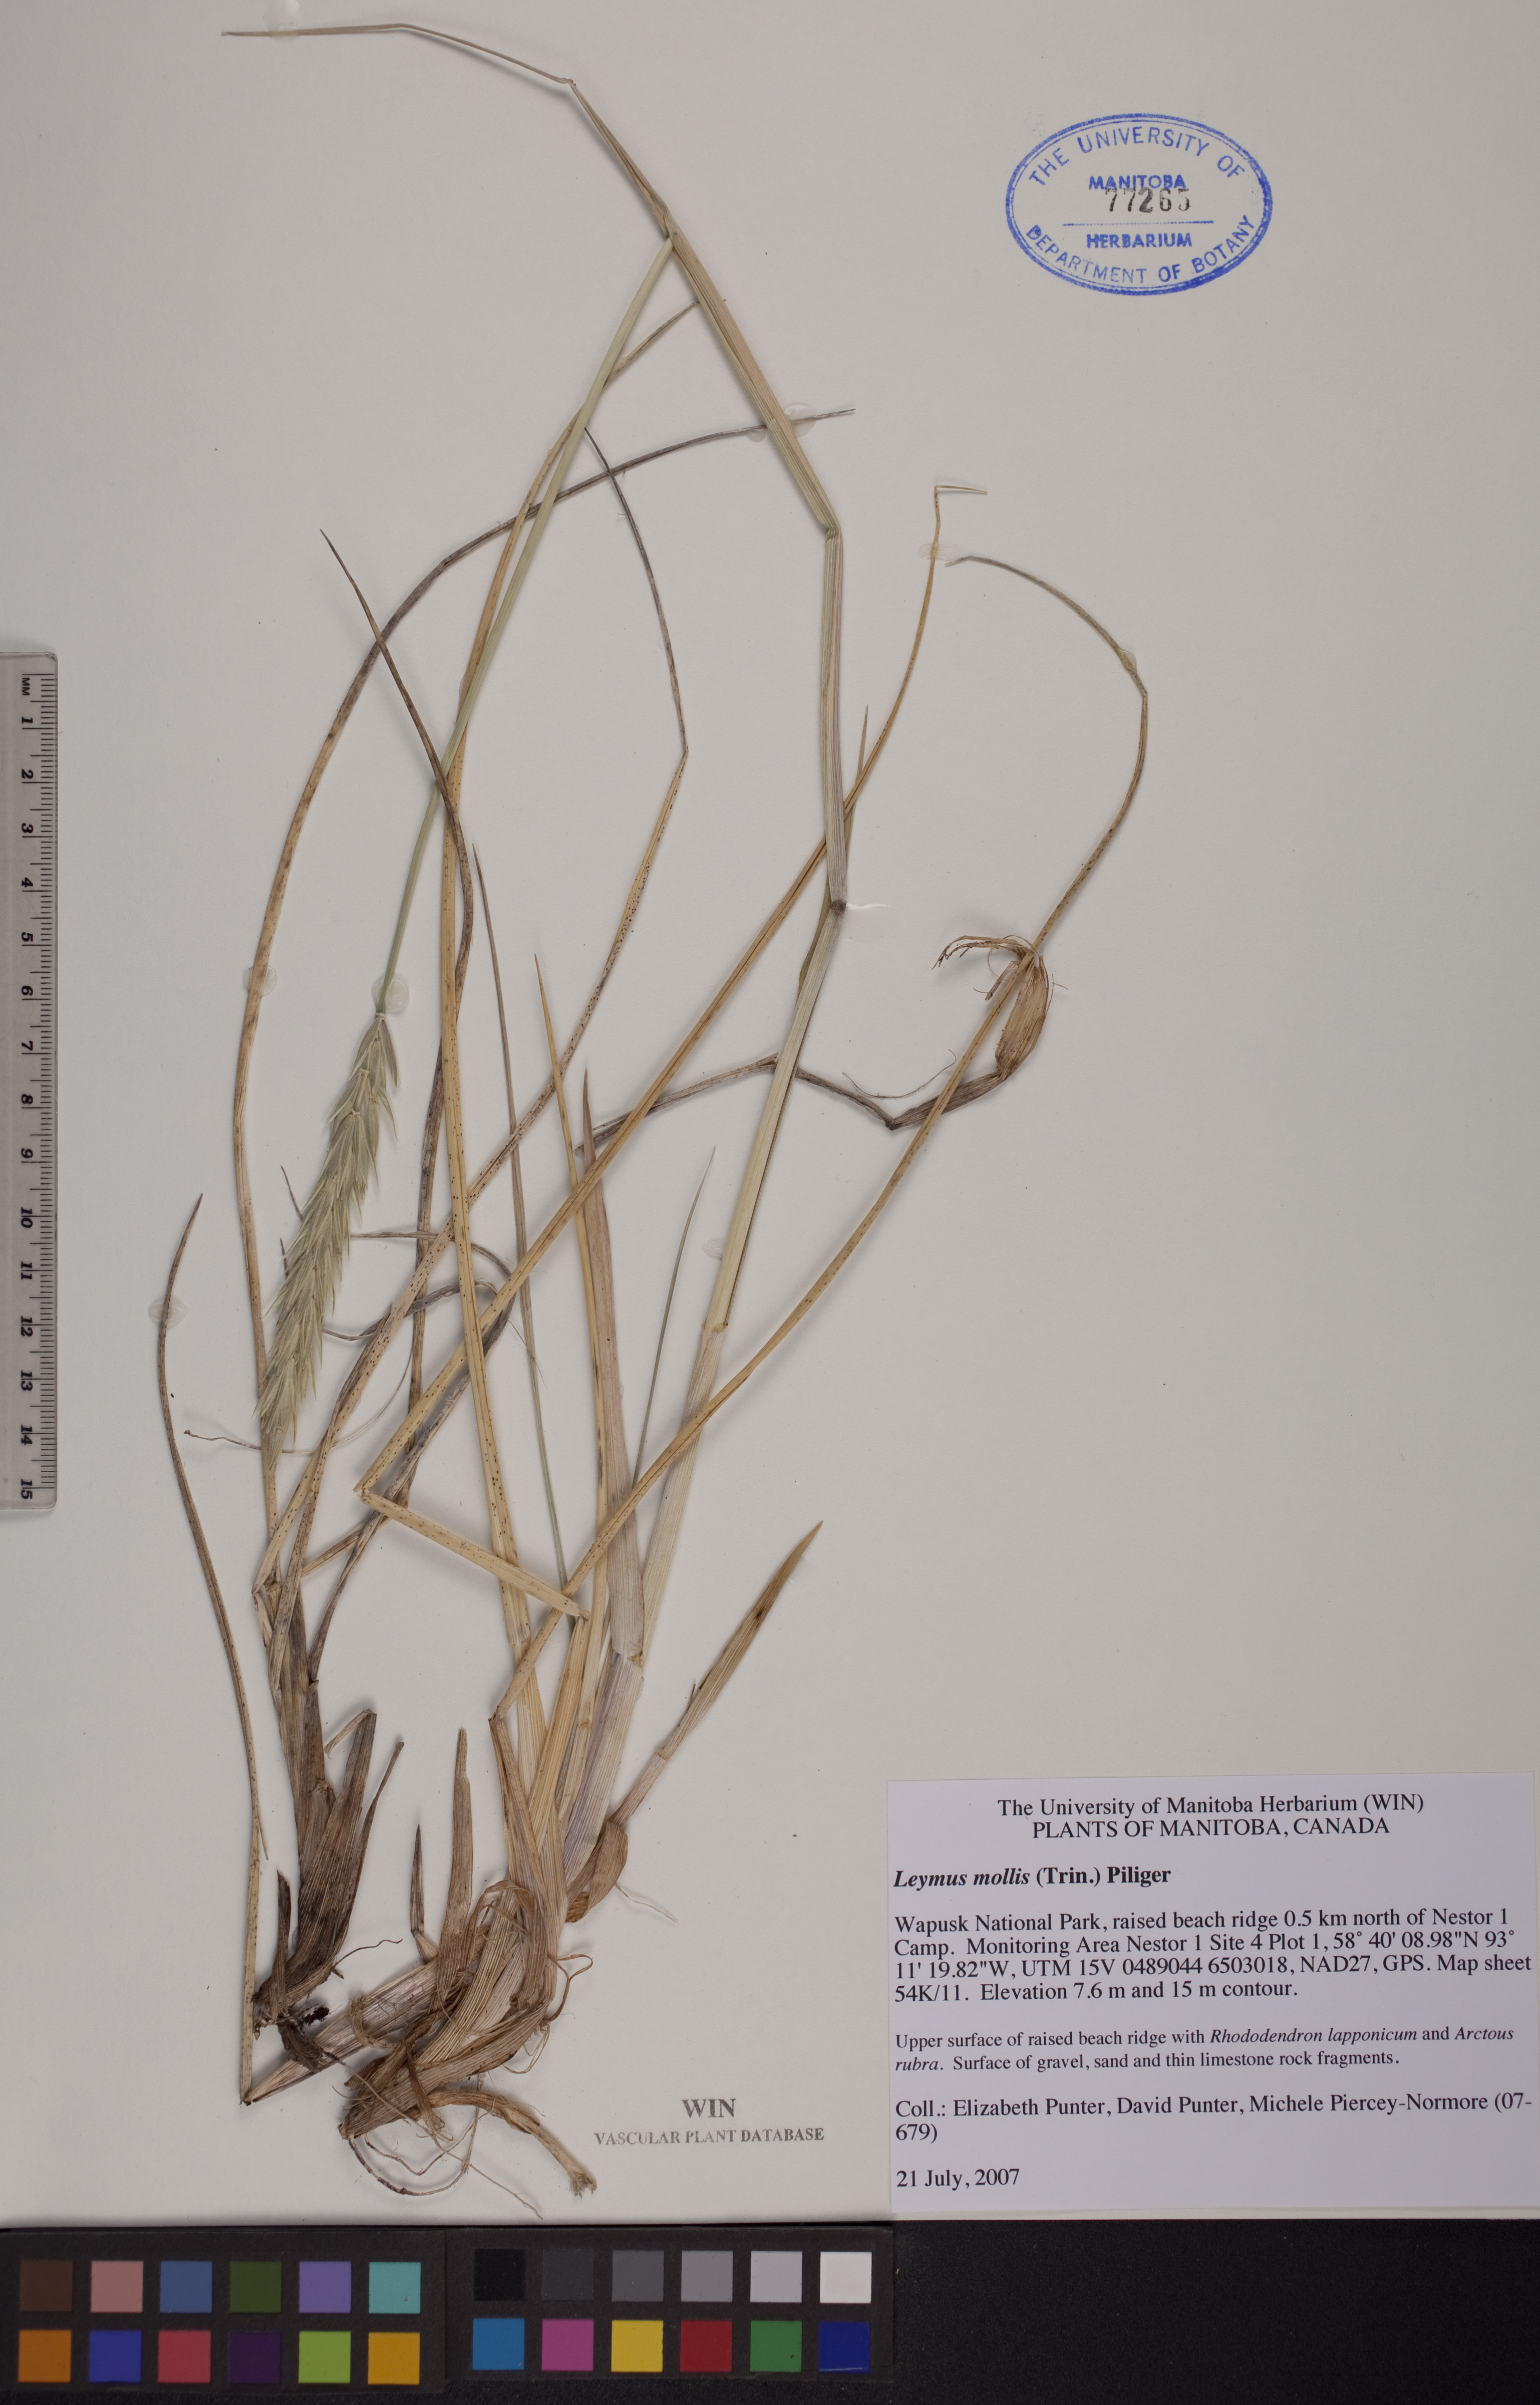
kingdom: Plantae
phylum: Tracheophyta
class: Liliopsida
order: Poales
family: Poaceae
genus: Leymus
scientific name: Leymus mollis
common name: American dune grass
